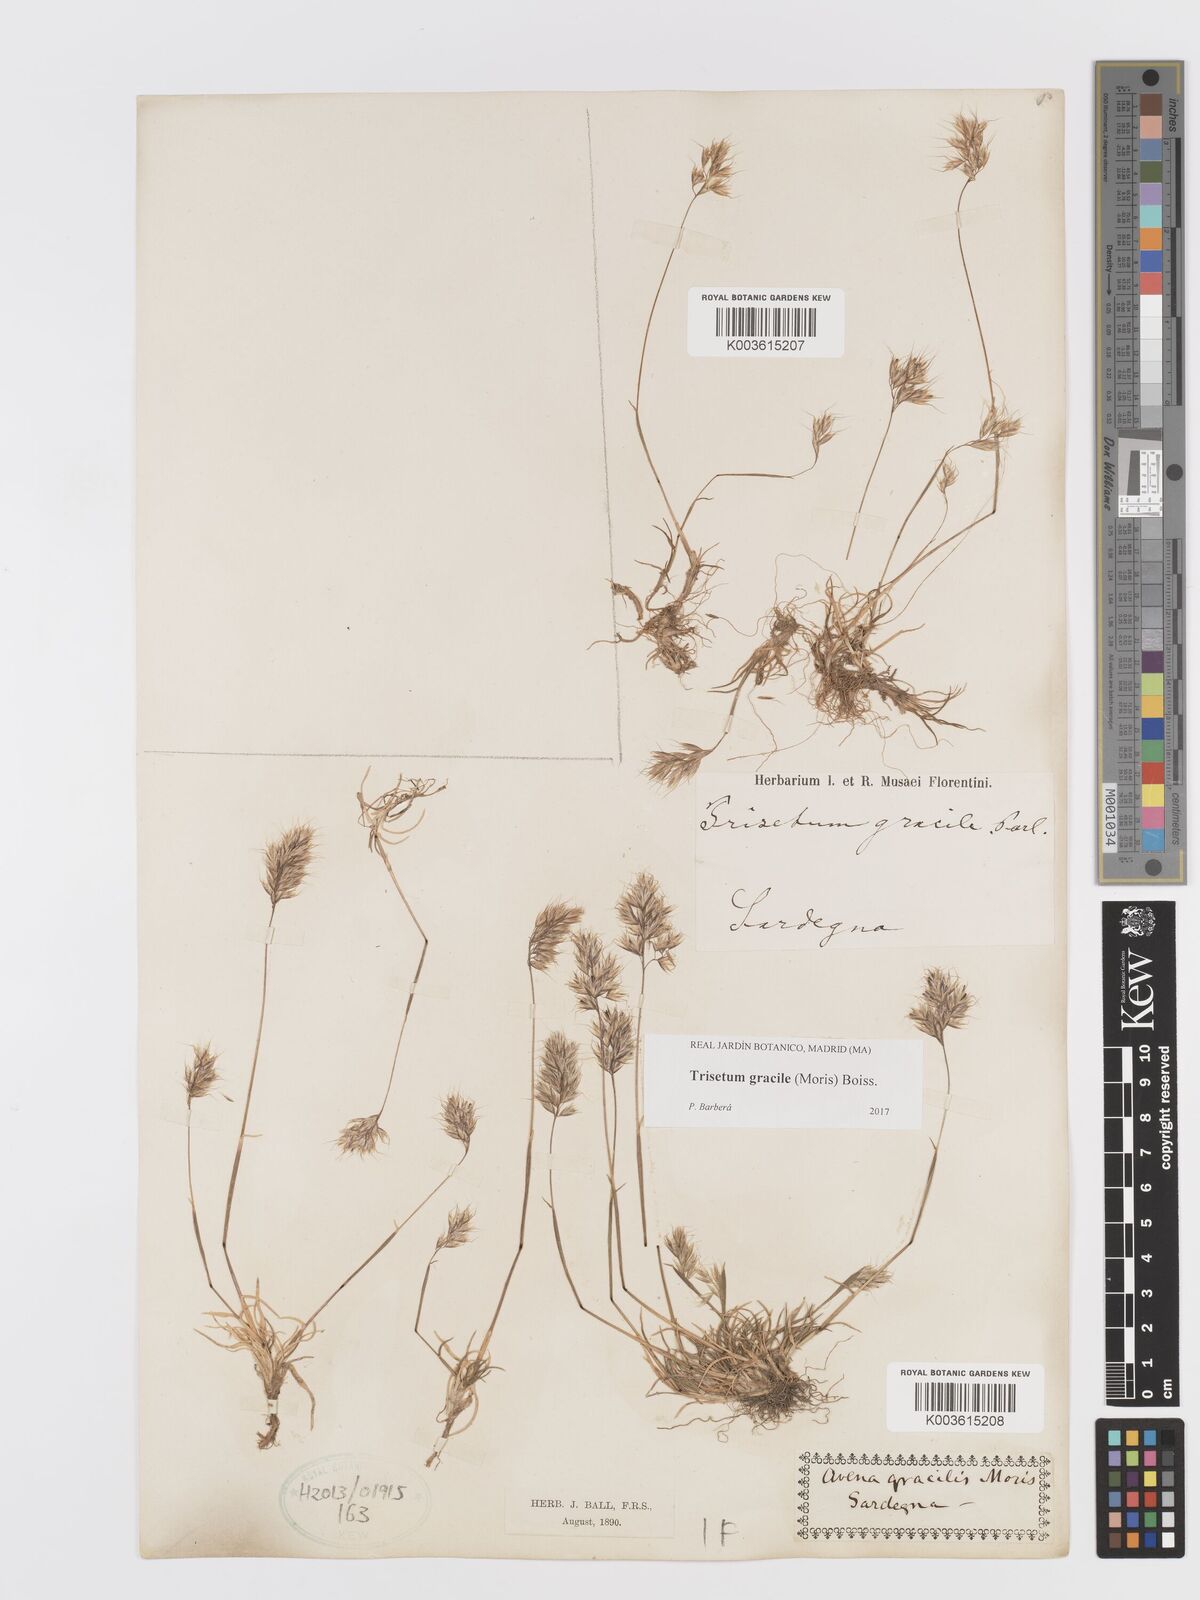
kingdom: Plantae
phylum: Tracheophyta
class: Liliopsida
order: Poales
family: Poaceae
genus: Trisetum
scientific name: Trisetum gracile
